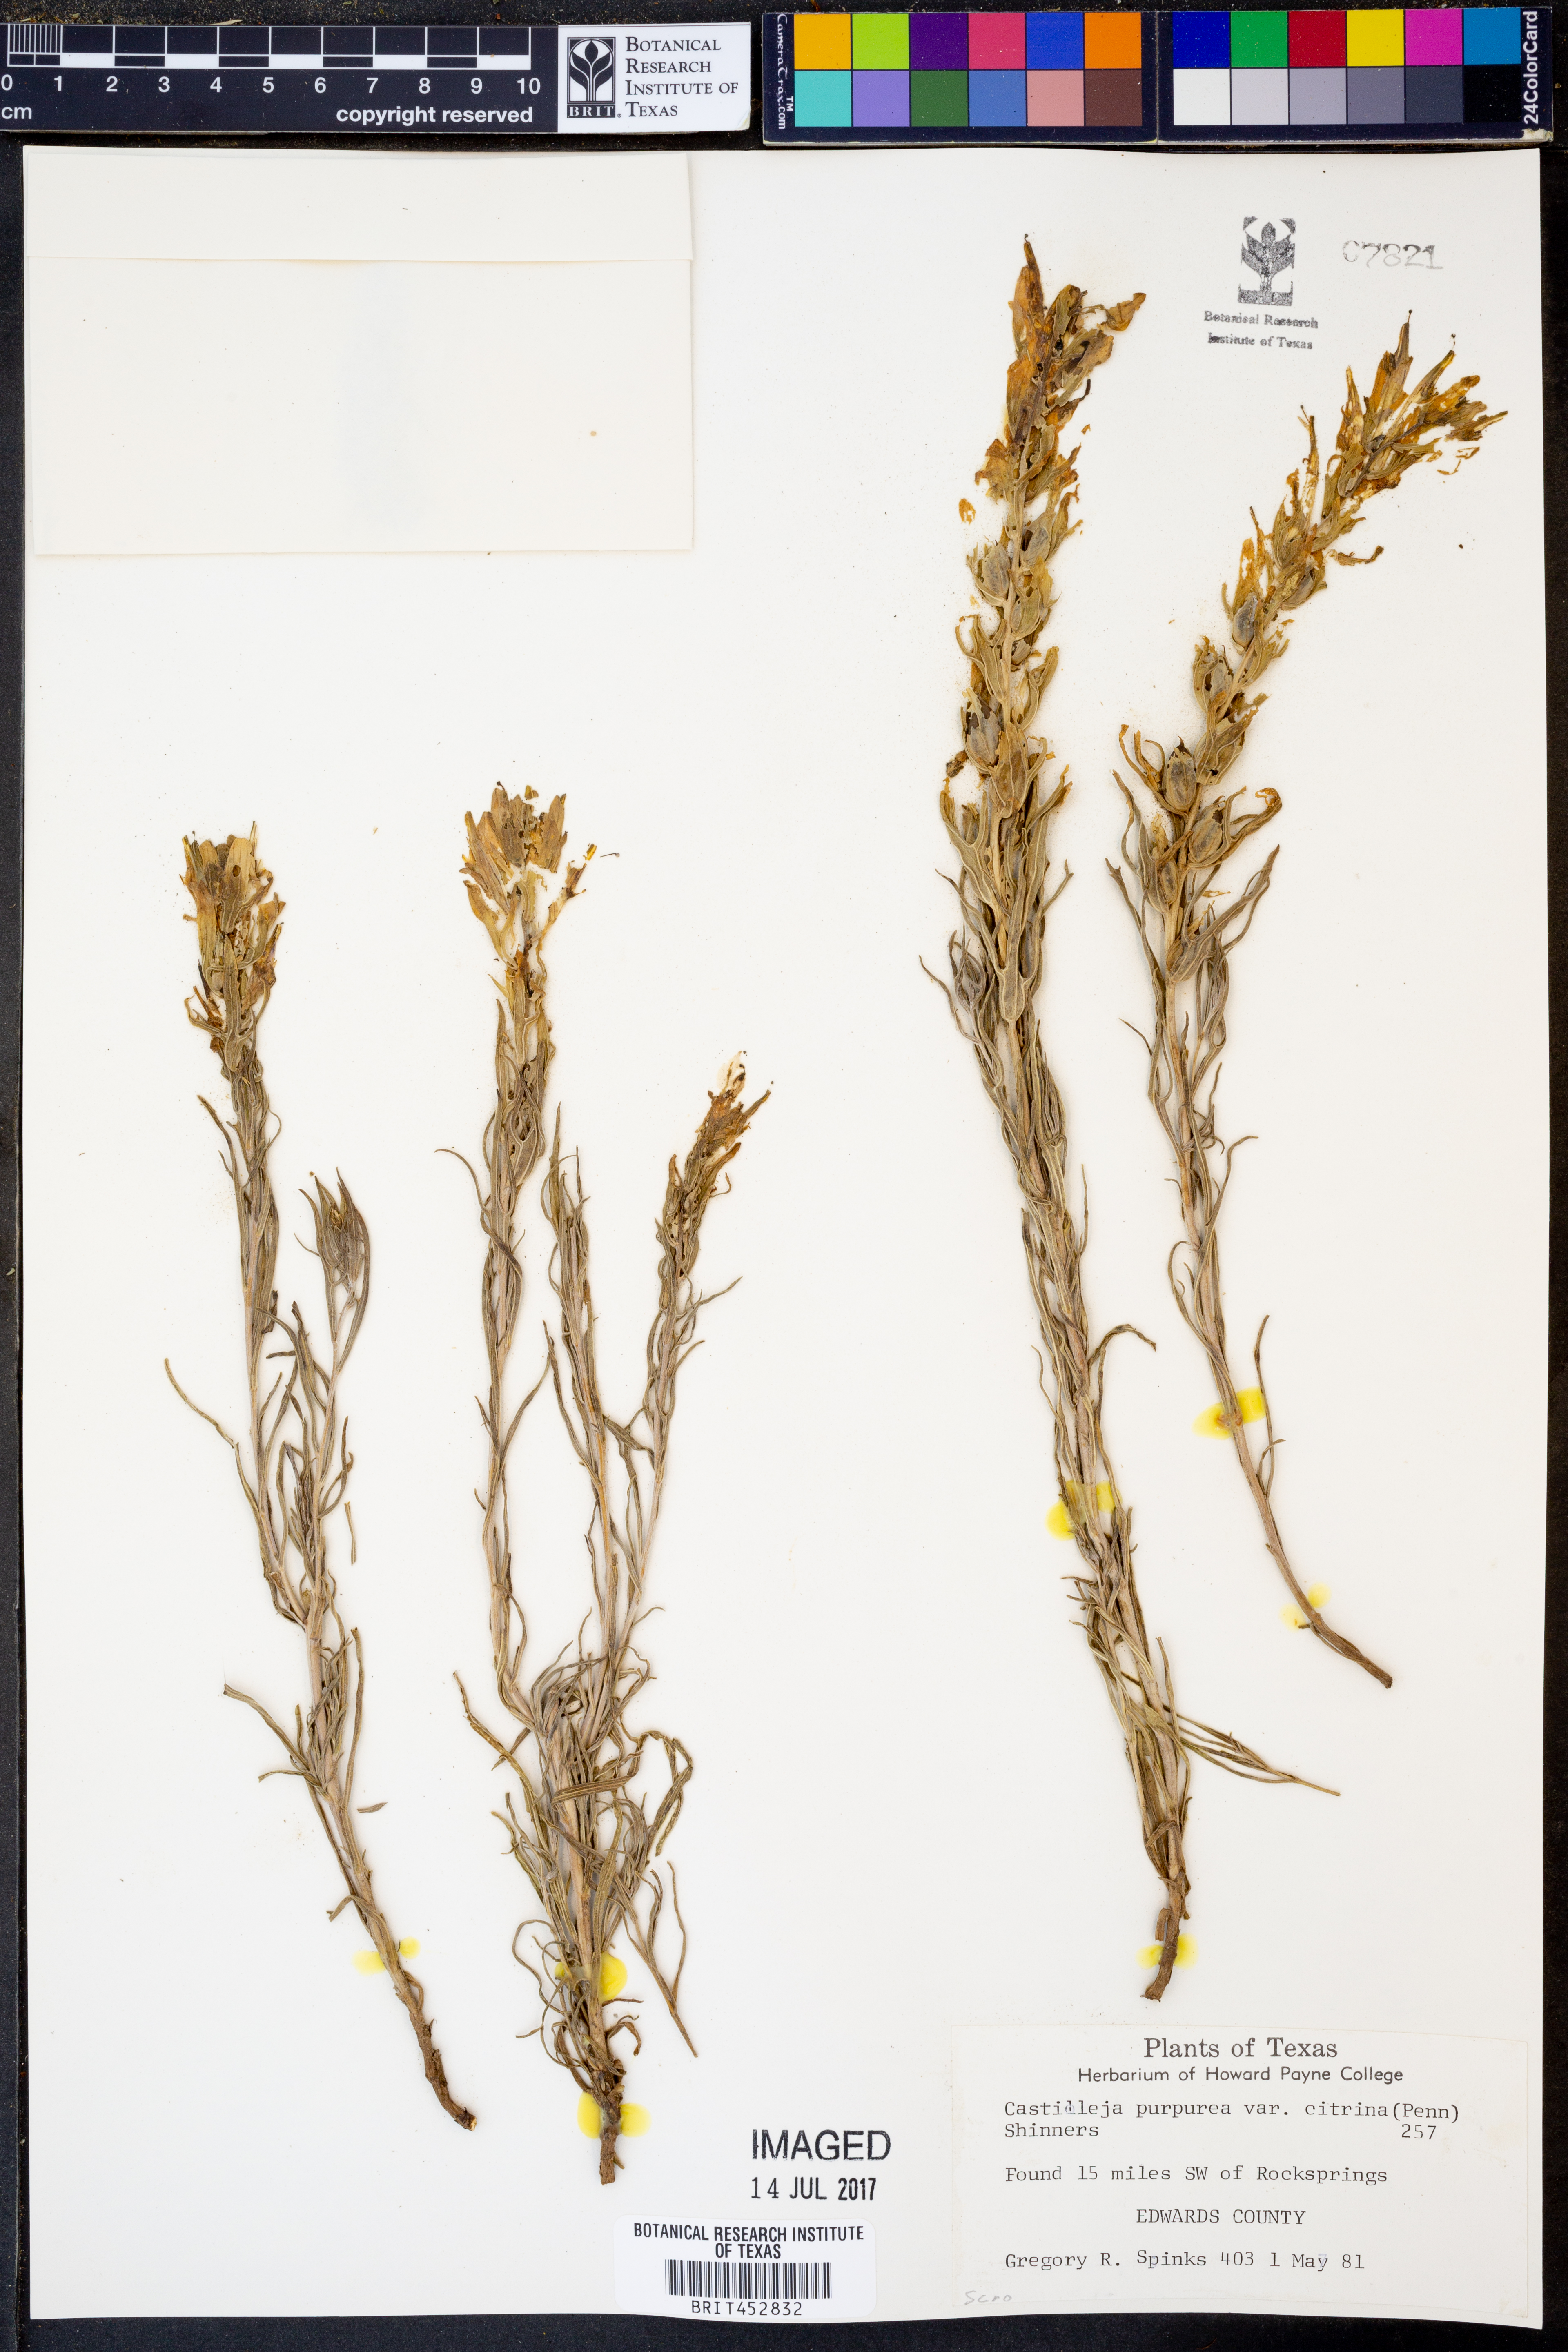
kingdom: Plantae
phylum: Tracheophyta
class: Magnoliopsida
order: Lamiales
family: Orobanchaceae
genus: Castilleja
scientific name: Castilleja purpurea
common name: Plains paintbrush
